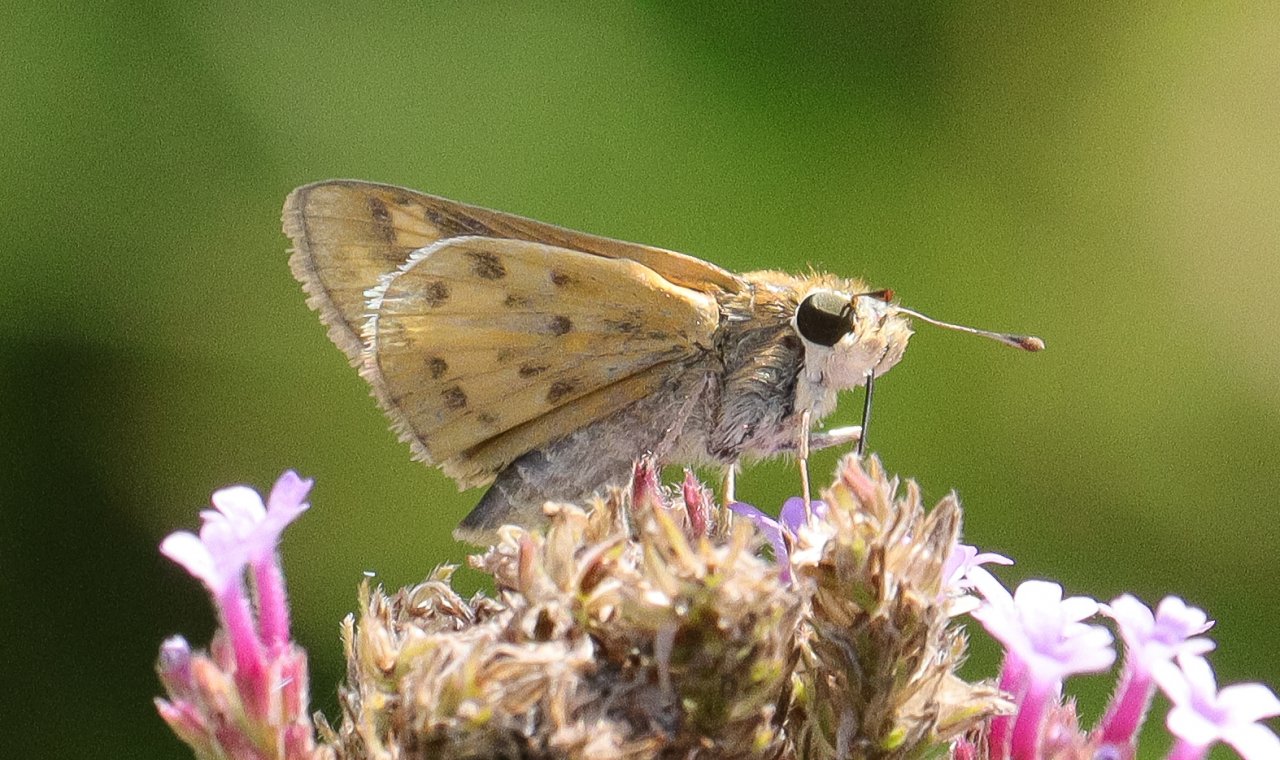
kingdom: Animalia
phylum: Arthropoda
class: Insecta
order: Lepidoptera
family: Hesperiidae
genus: Hylephila
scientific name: Hylephila phyleus
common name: Fiery Skipper
